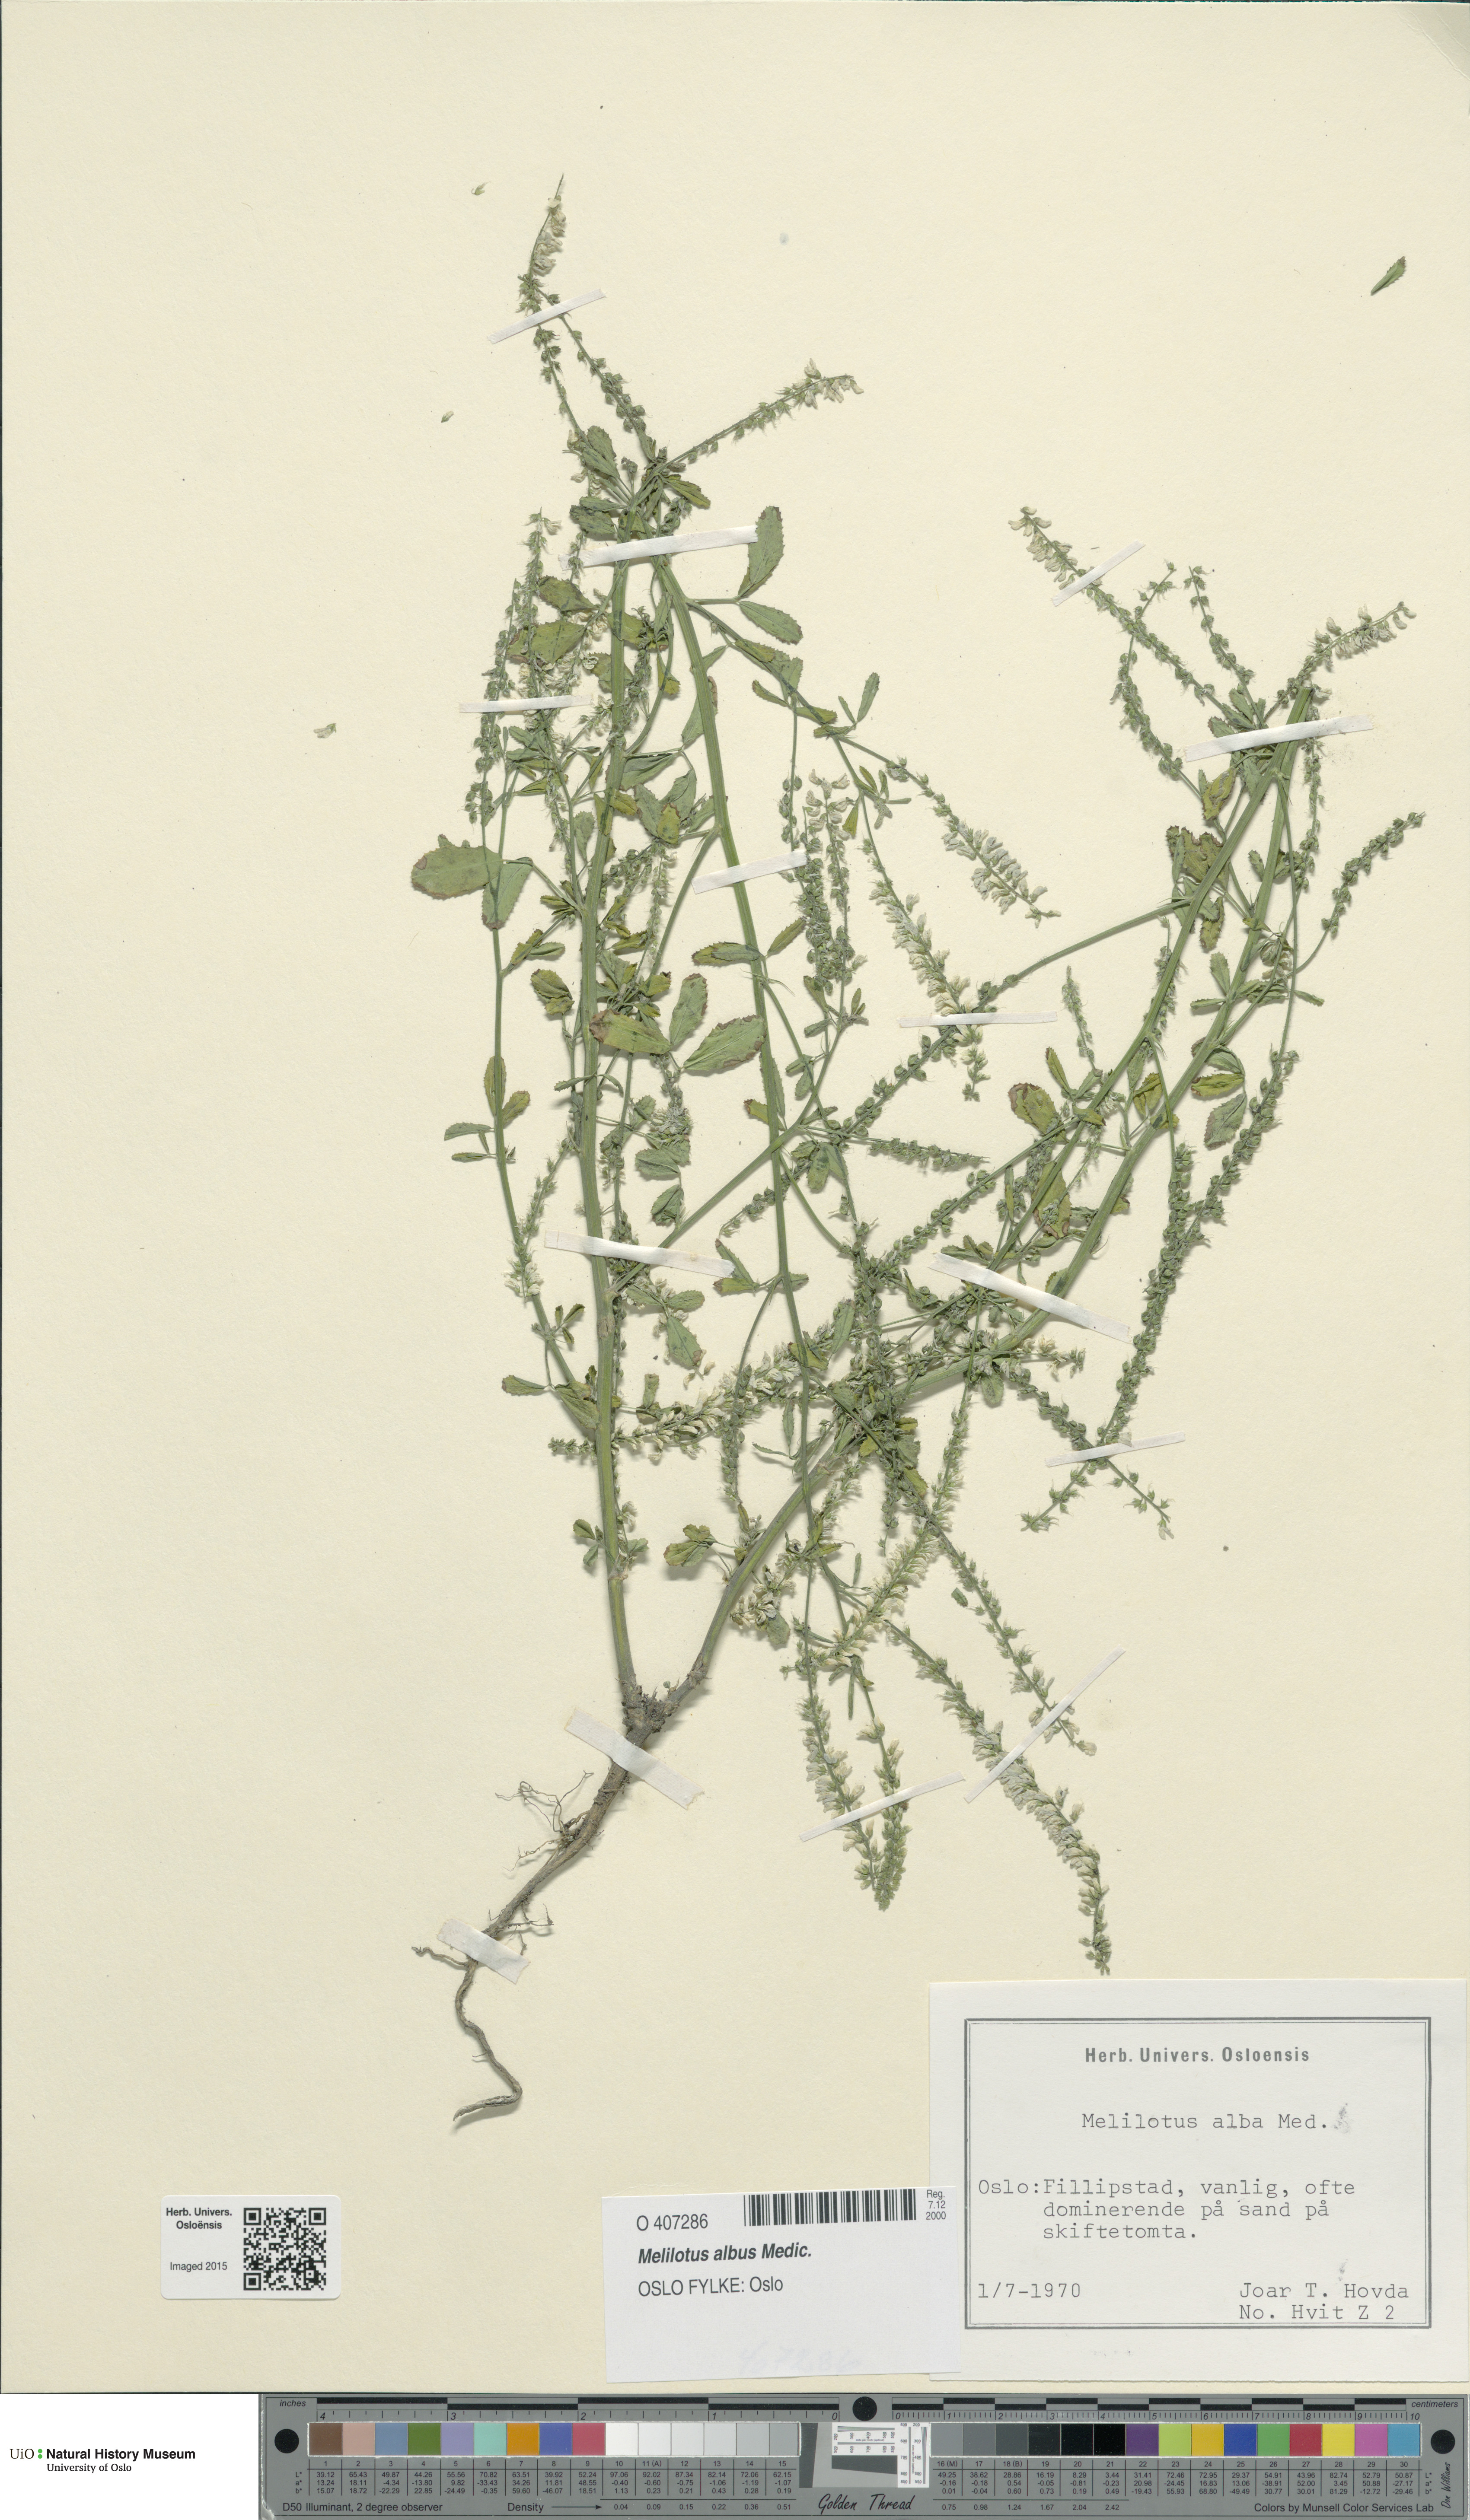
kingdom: Plantae
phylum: Tracheophyta
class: Magnoliopsida
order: Fabales
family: Fabaceae
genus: Melilotus
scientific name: Melilotus albus
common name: White melilot
